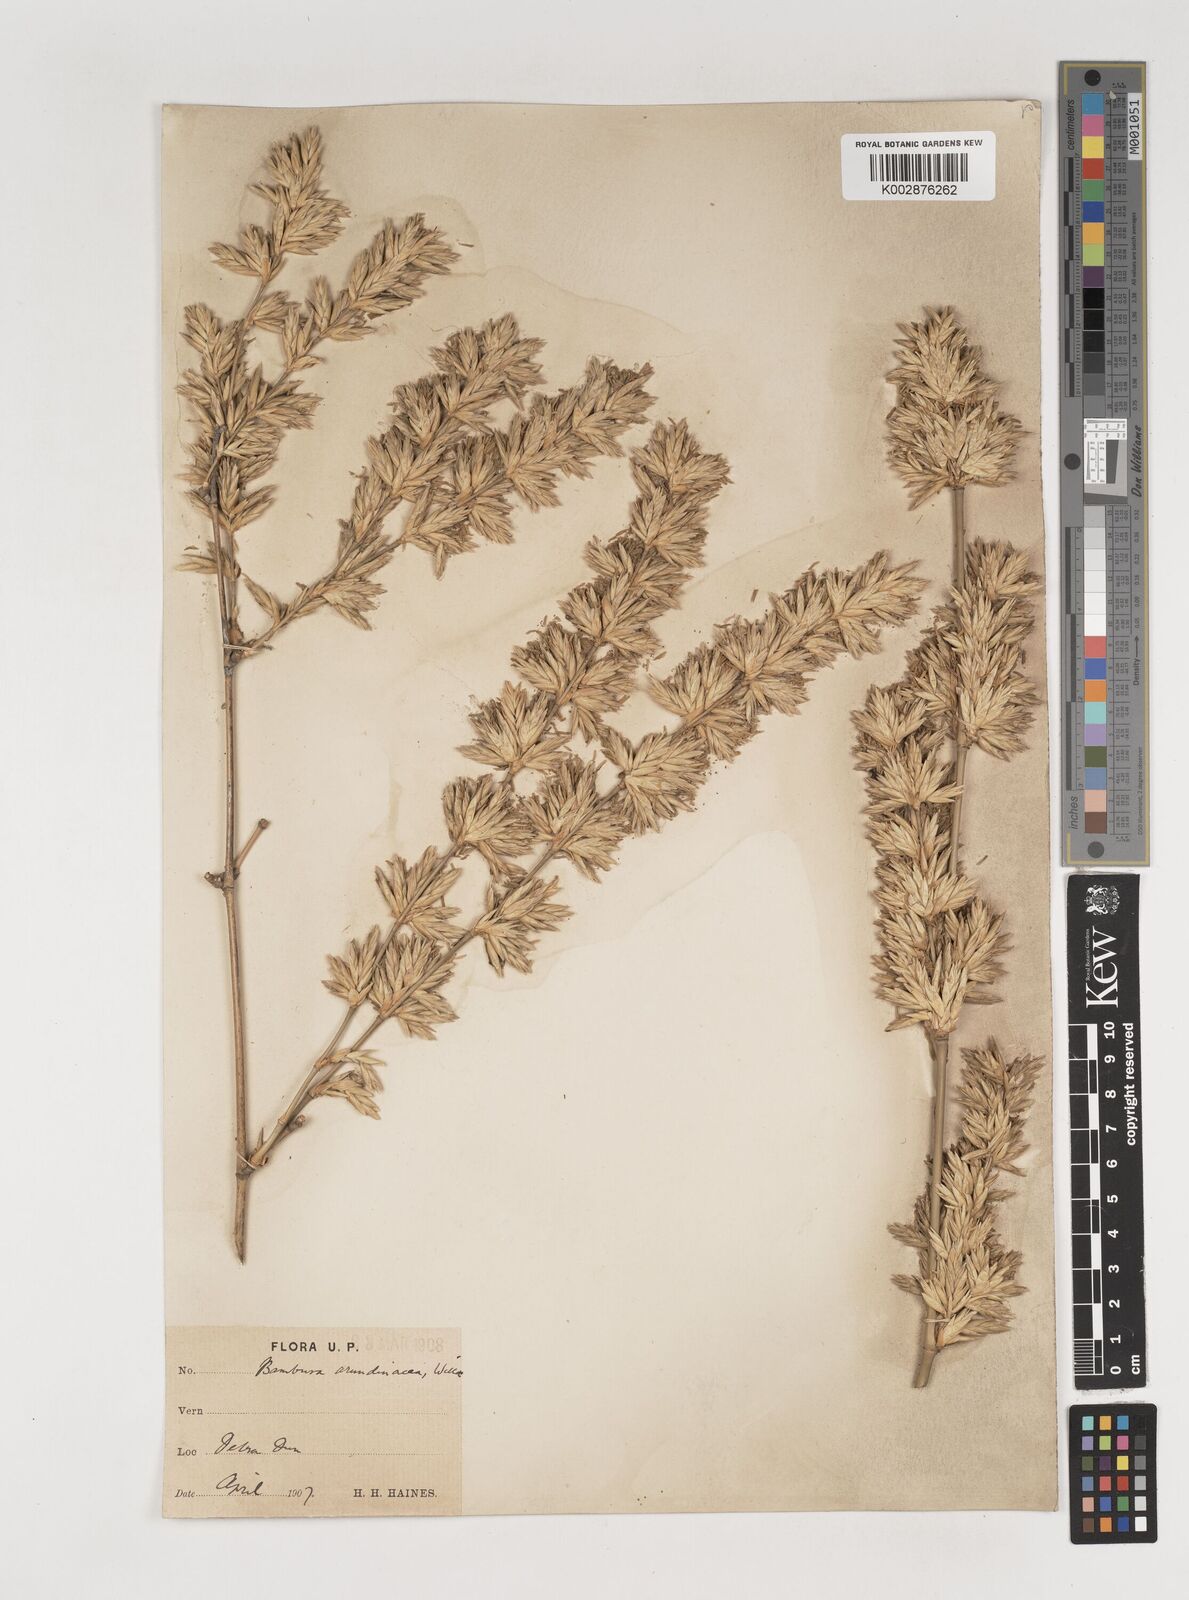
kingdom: Plantae
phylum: Tracheophyta
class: Liliopsida
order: Poales
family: Poaceae
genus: Bambusa
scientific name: Bambusa bambos
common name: Indian thorny bamboo
